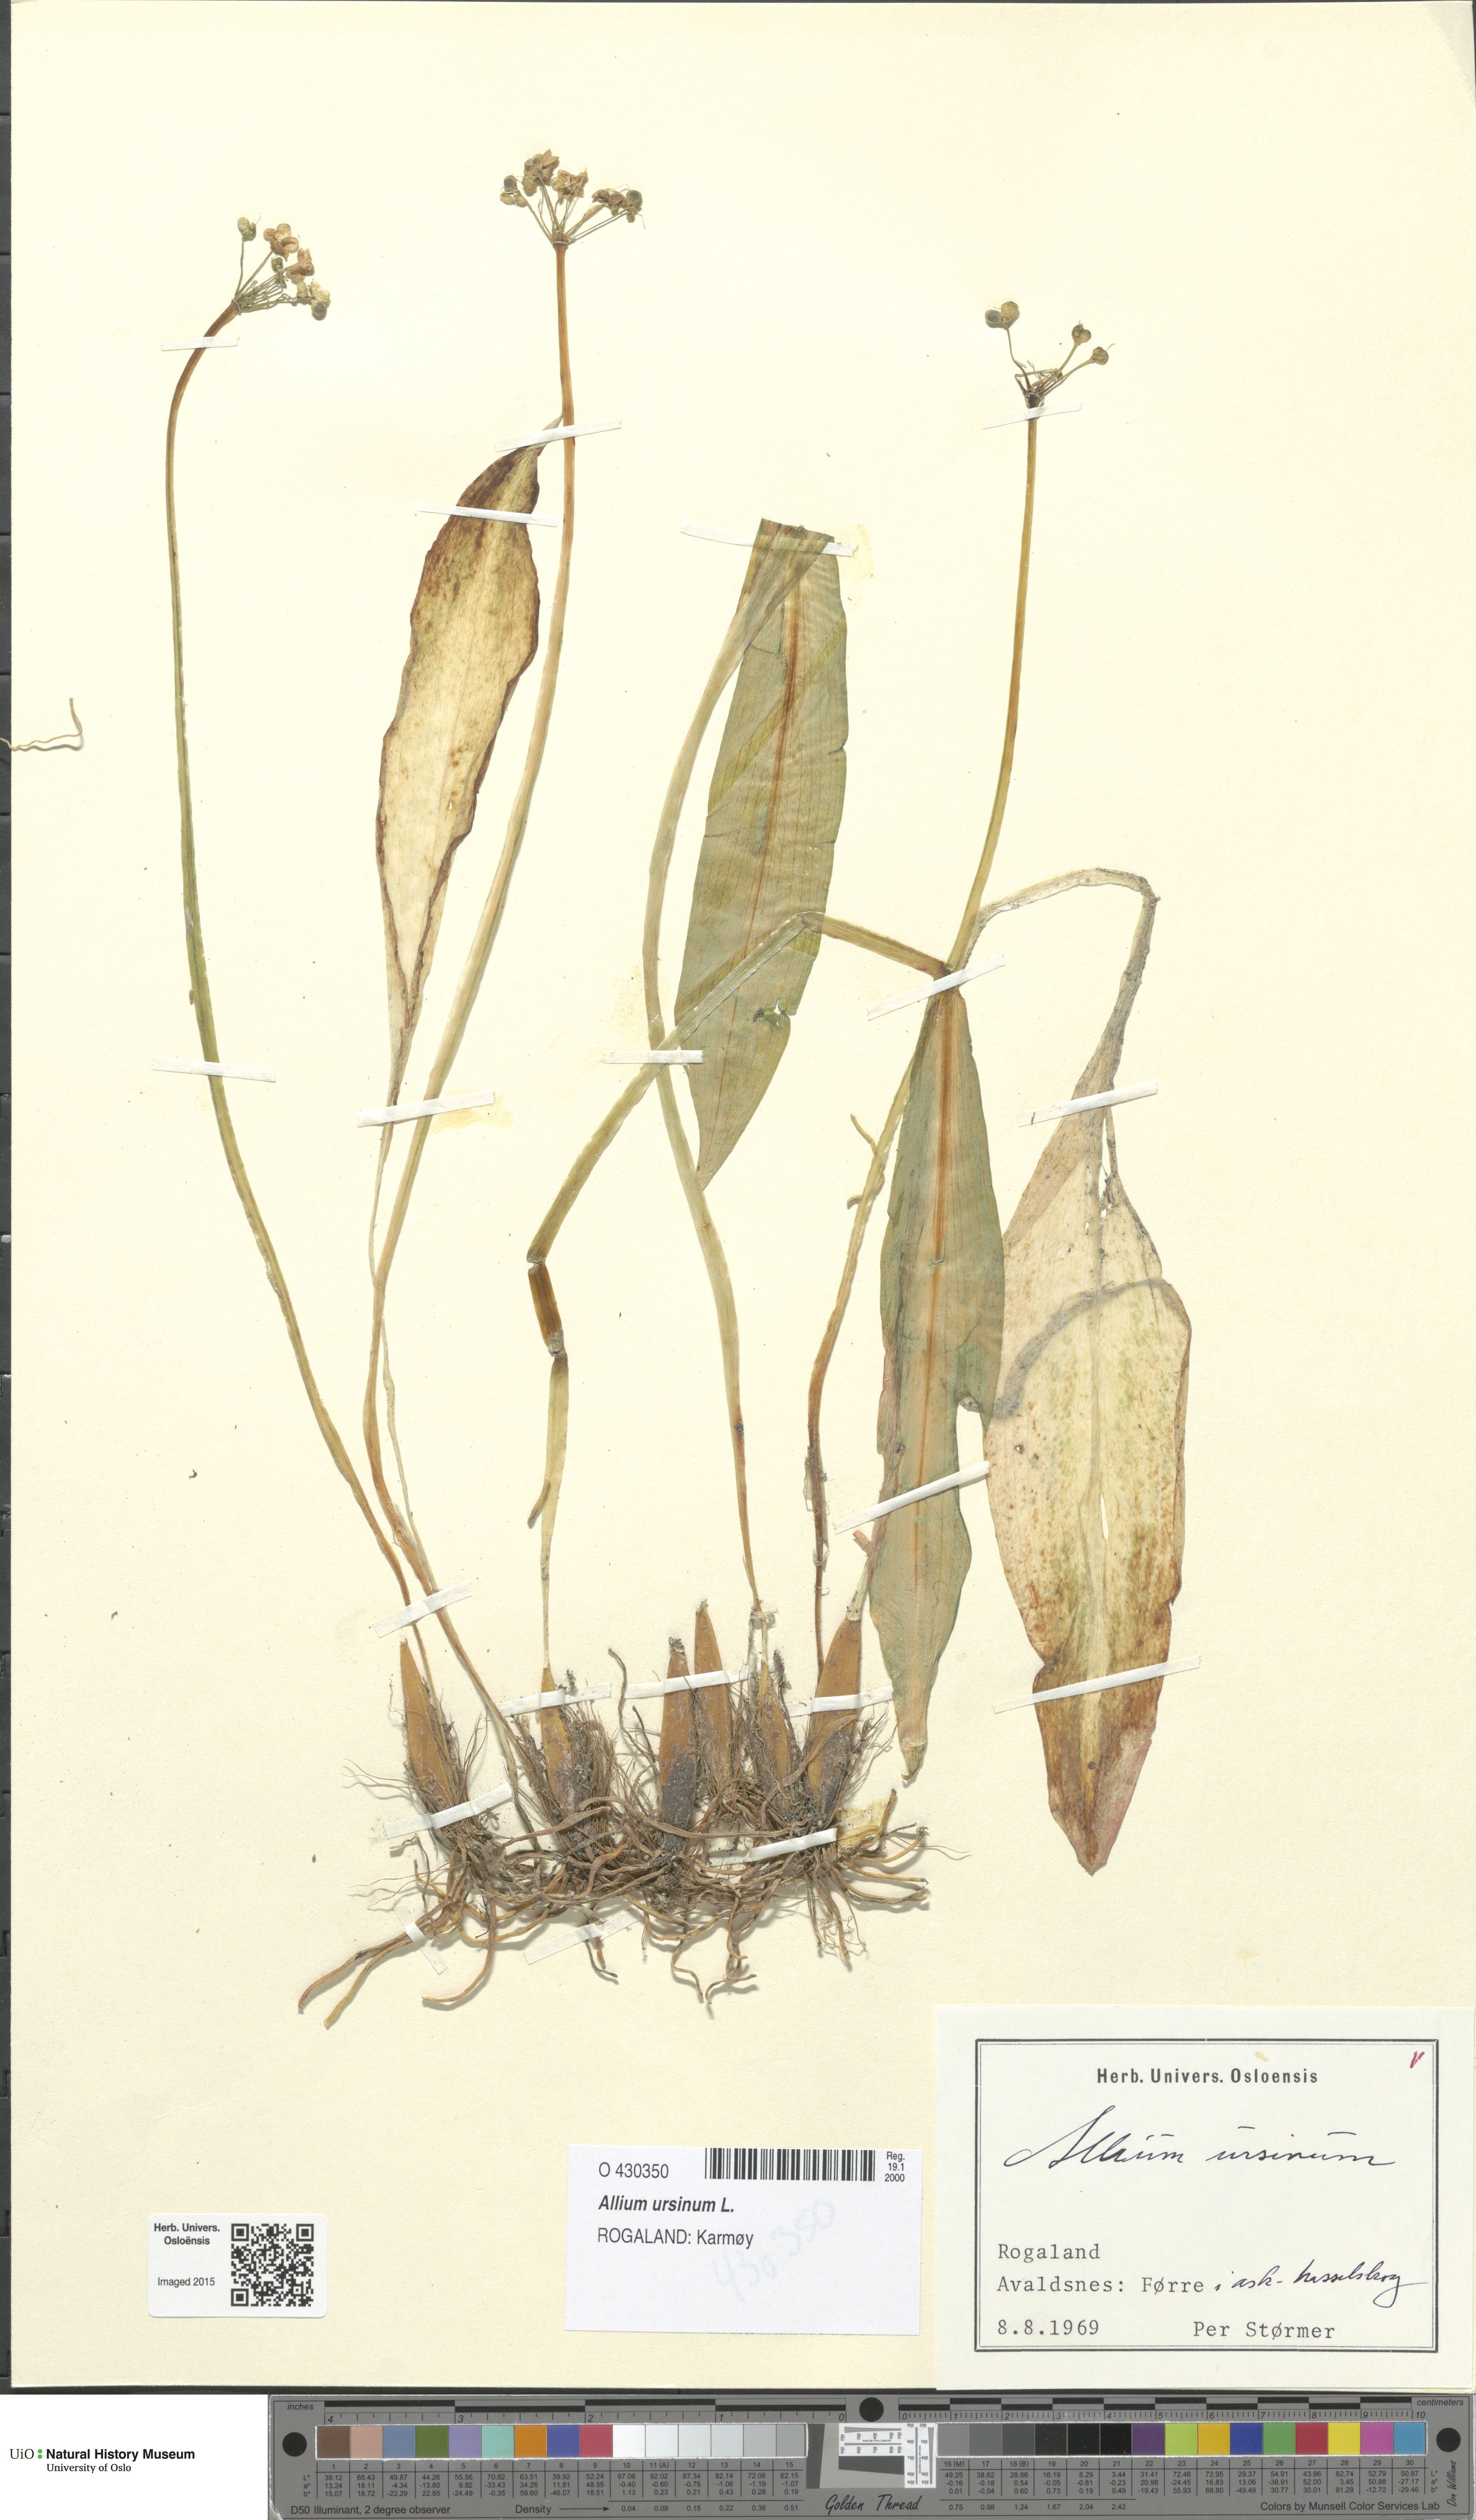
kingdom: Plantae
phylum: Tracheophyta
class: Liliopsida
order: Asparagales
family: Amaryllidaceae
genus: Allium
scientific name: Allium ursinum
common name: Ramsons
